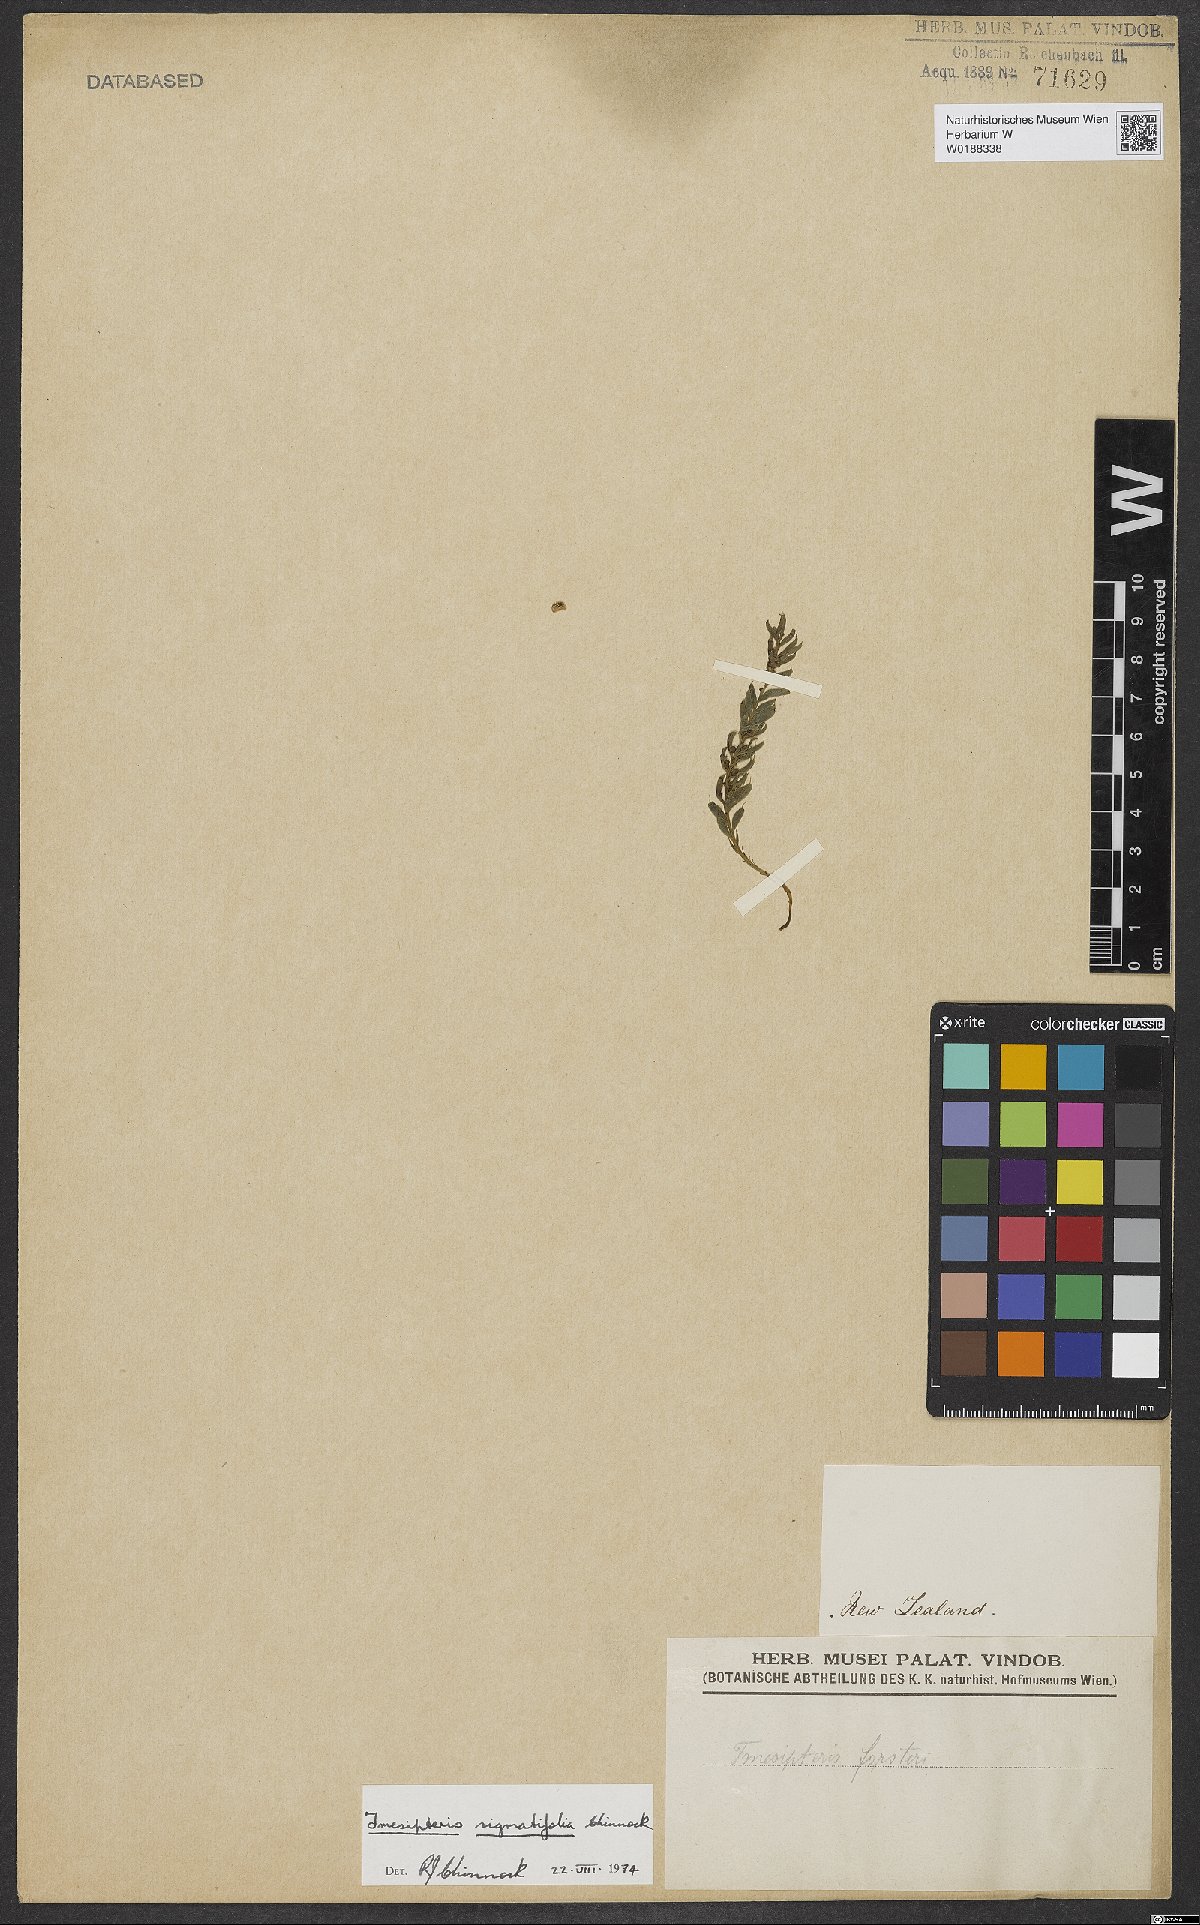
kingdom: Plantae
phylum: Tracheophyta
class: Polypodiopsida
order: Psilotales
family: Psilotaceae
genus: Tmesipteris
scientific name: Tmesipteris sigmatifolia
